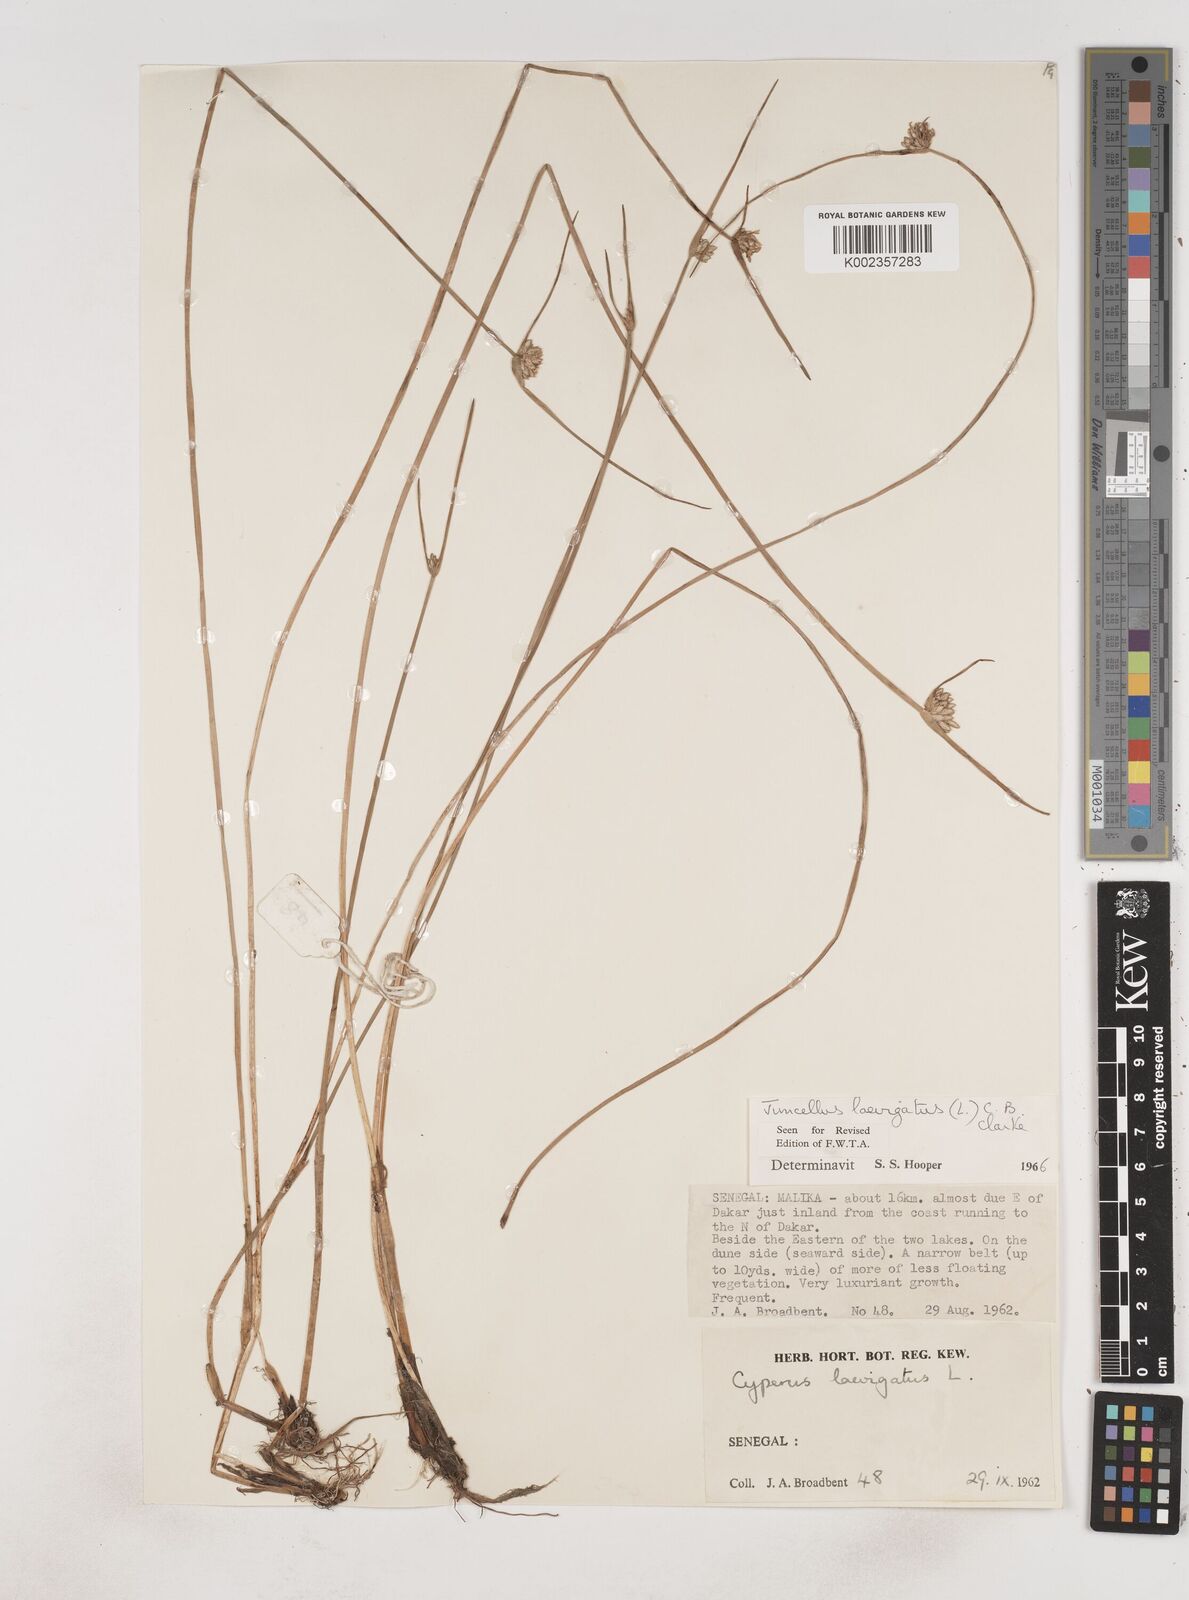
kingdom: Plantae
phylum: Tracheophyta
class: Liliopsida
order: Poales
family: Cyperaceae
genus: Cyperus
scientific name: Cyperus laevigatus
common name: Smooth flat sedge
